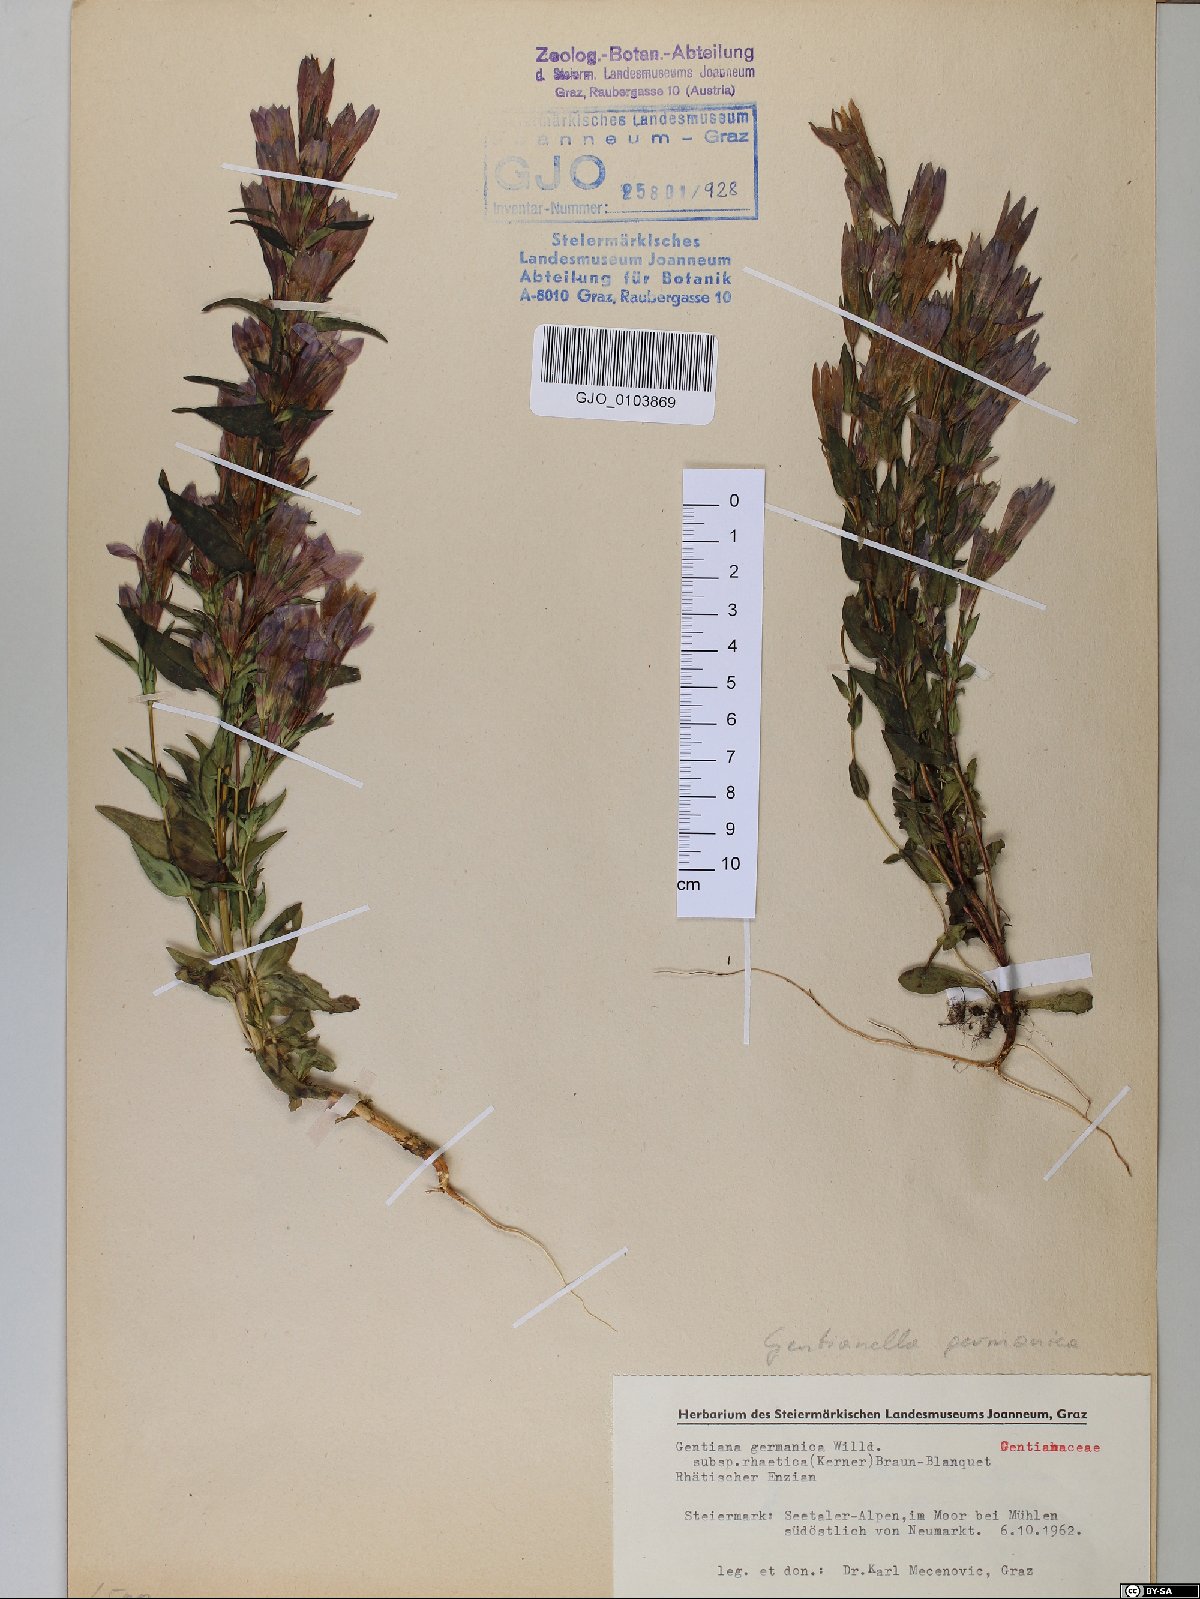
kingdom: Plantae
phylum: Tracheophyta
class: Magnoliopsida
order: Gentianales
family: Gentianaceae
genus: Gentianella
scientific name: Gentianella rhaetica
